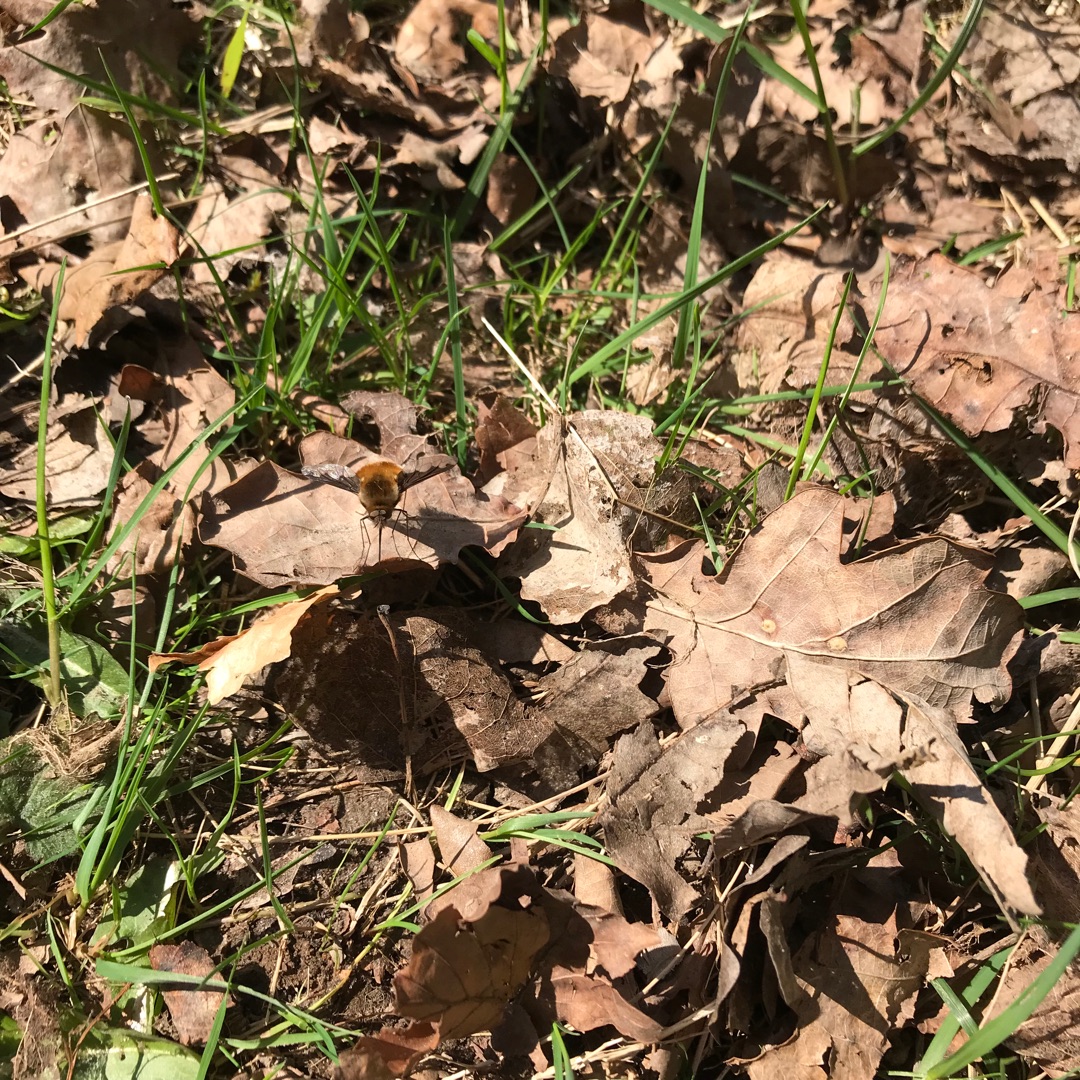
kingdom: Animalia
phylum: Arthropoda
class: Insecta
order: Diptera
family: Bombyliidae
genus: Bombylius
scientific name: Bombylius major
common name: Stor humleflue
